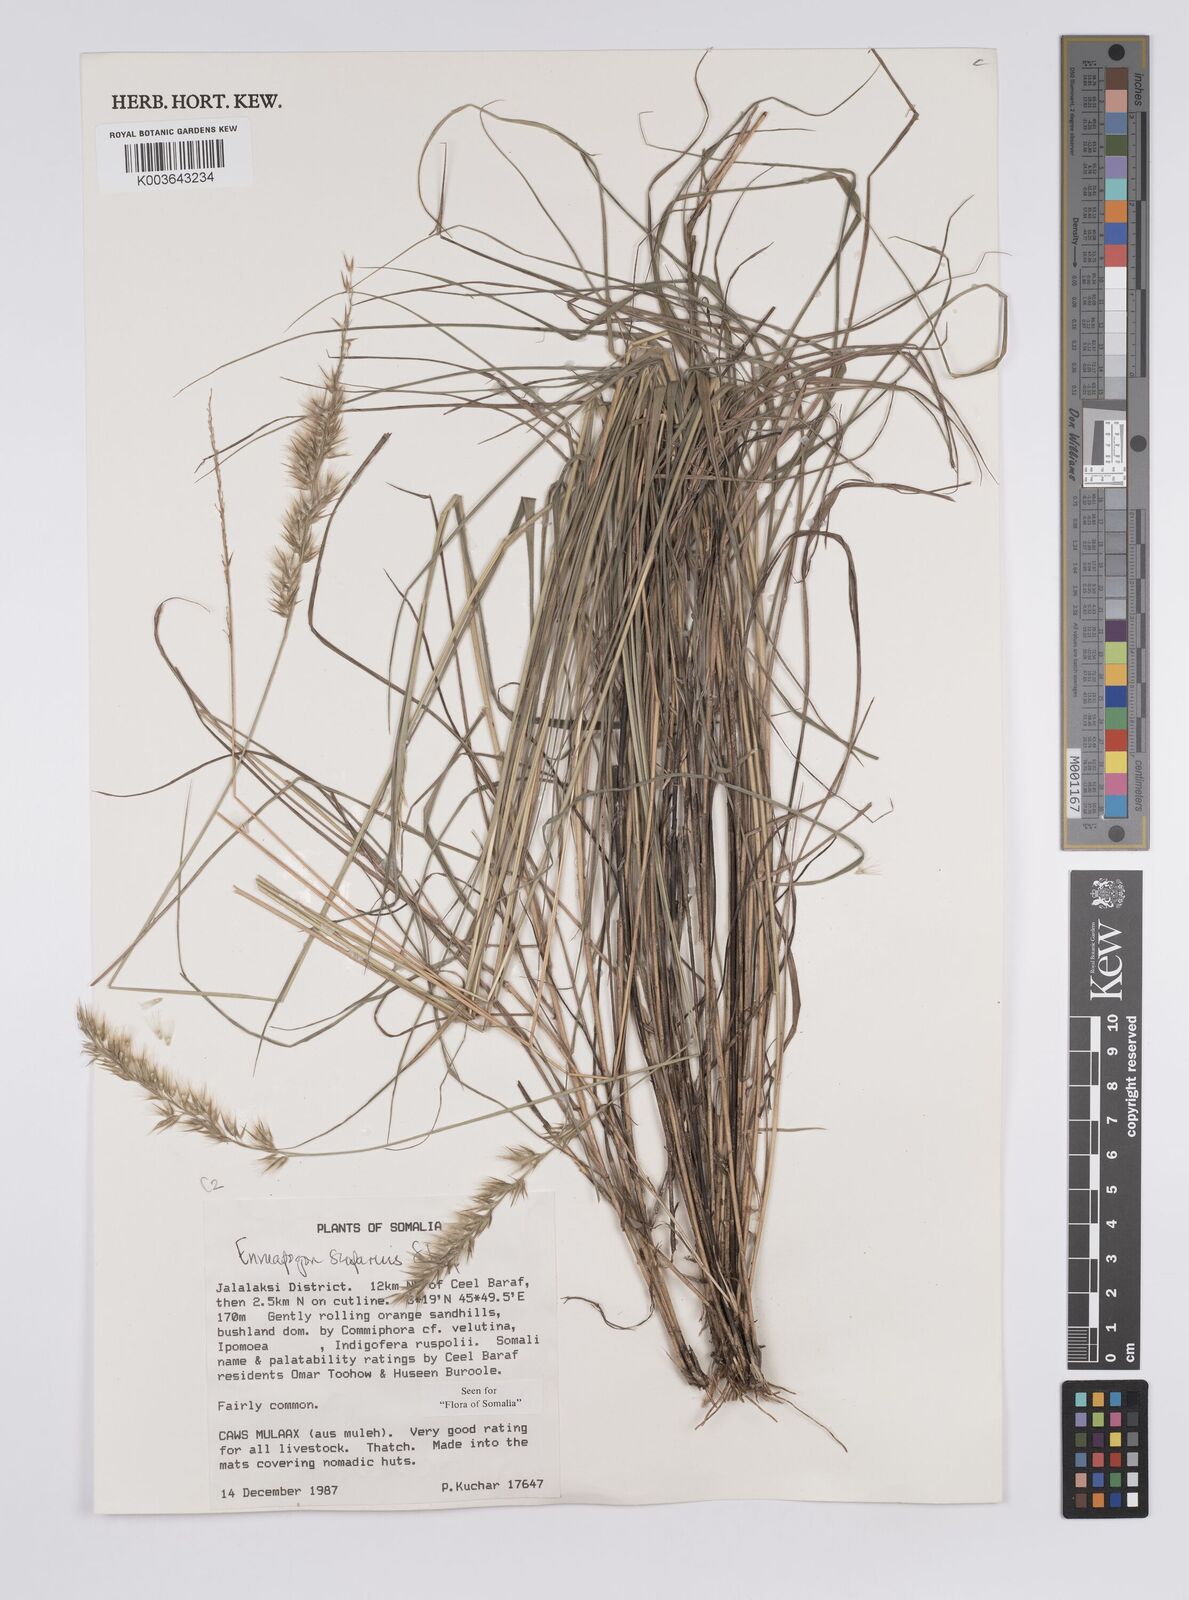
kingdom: Plantae
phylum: Tracheophyta
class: Liliopsida
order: Poales
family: Poaceae
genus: Enneapogon
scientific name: Enneapogon scoparius
